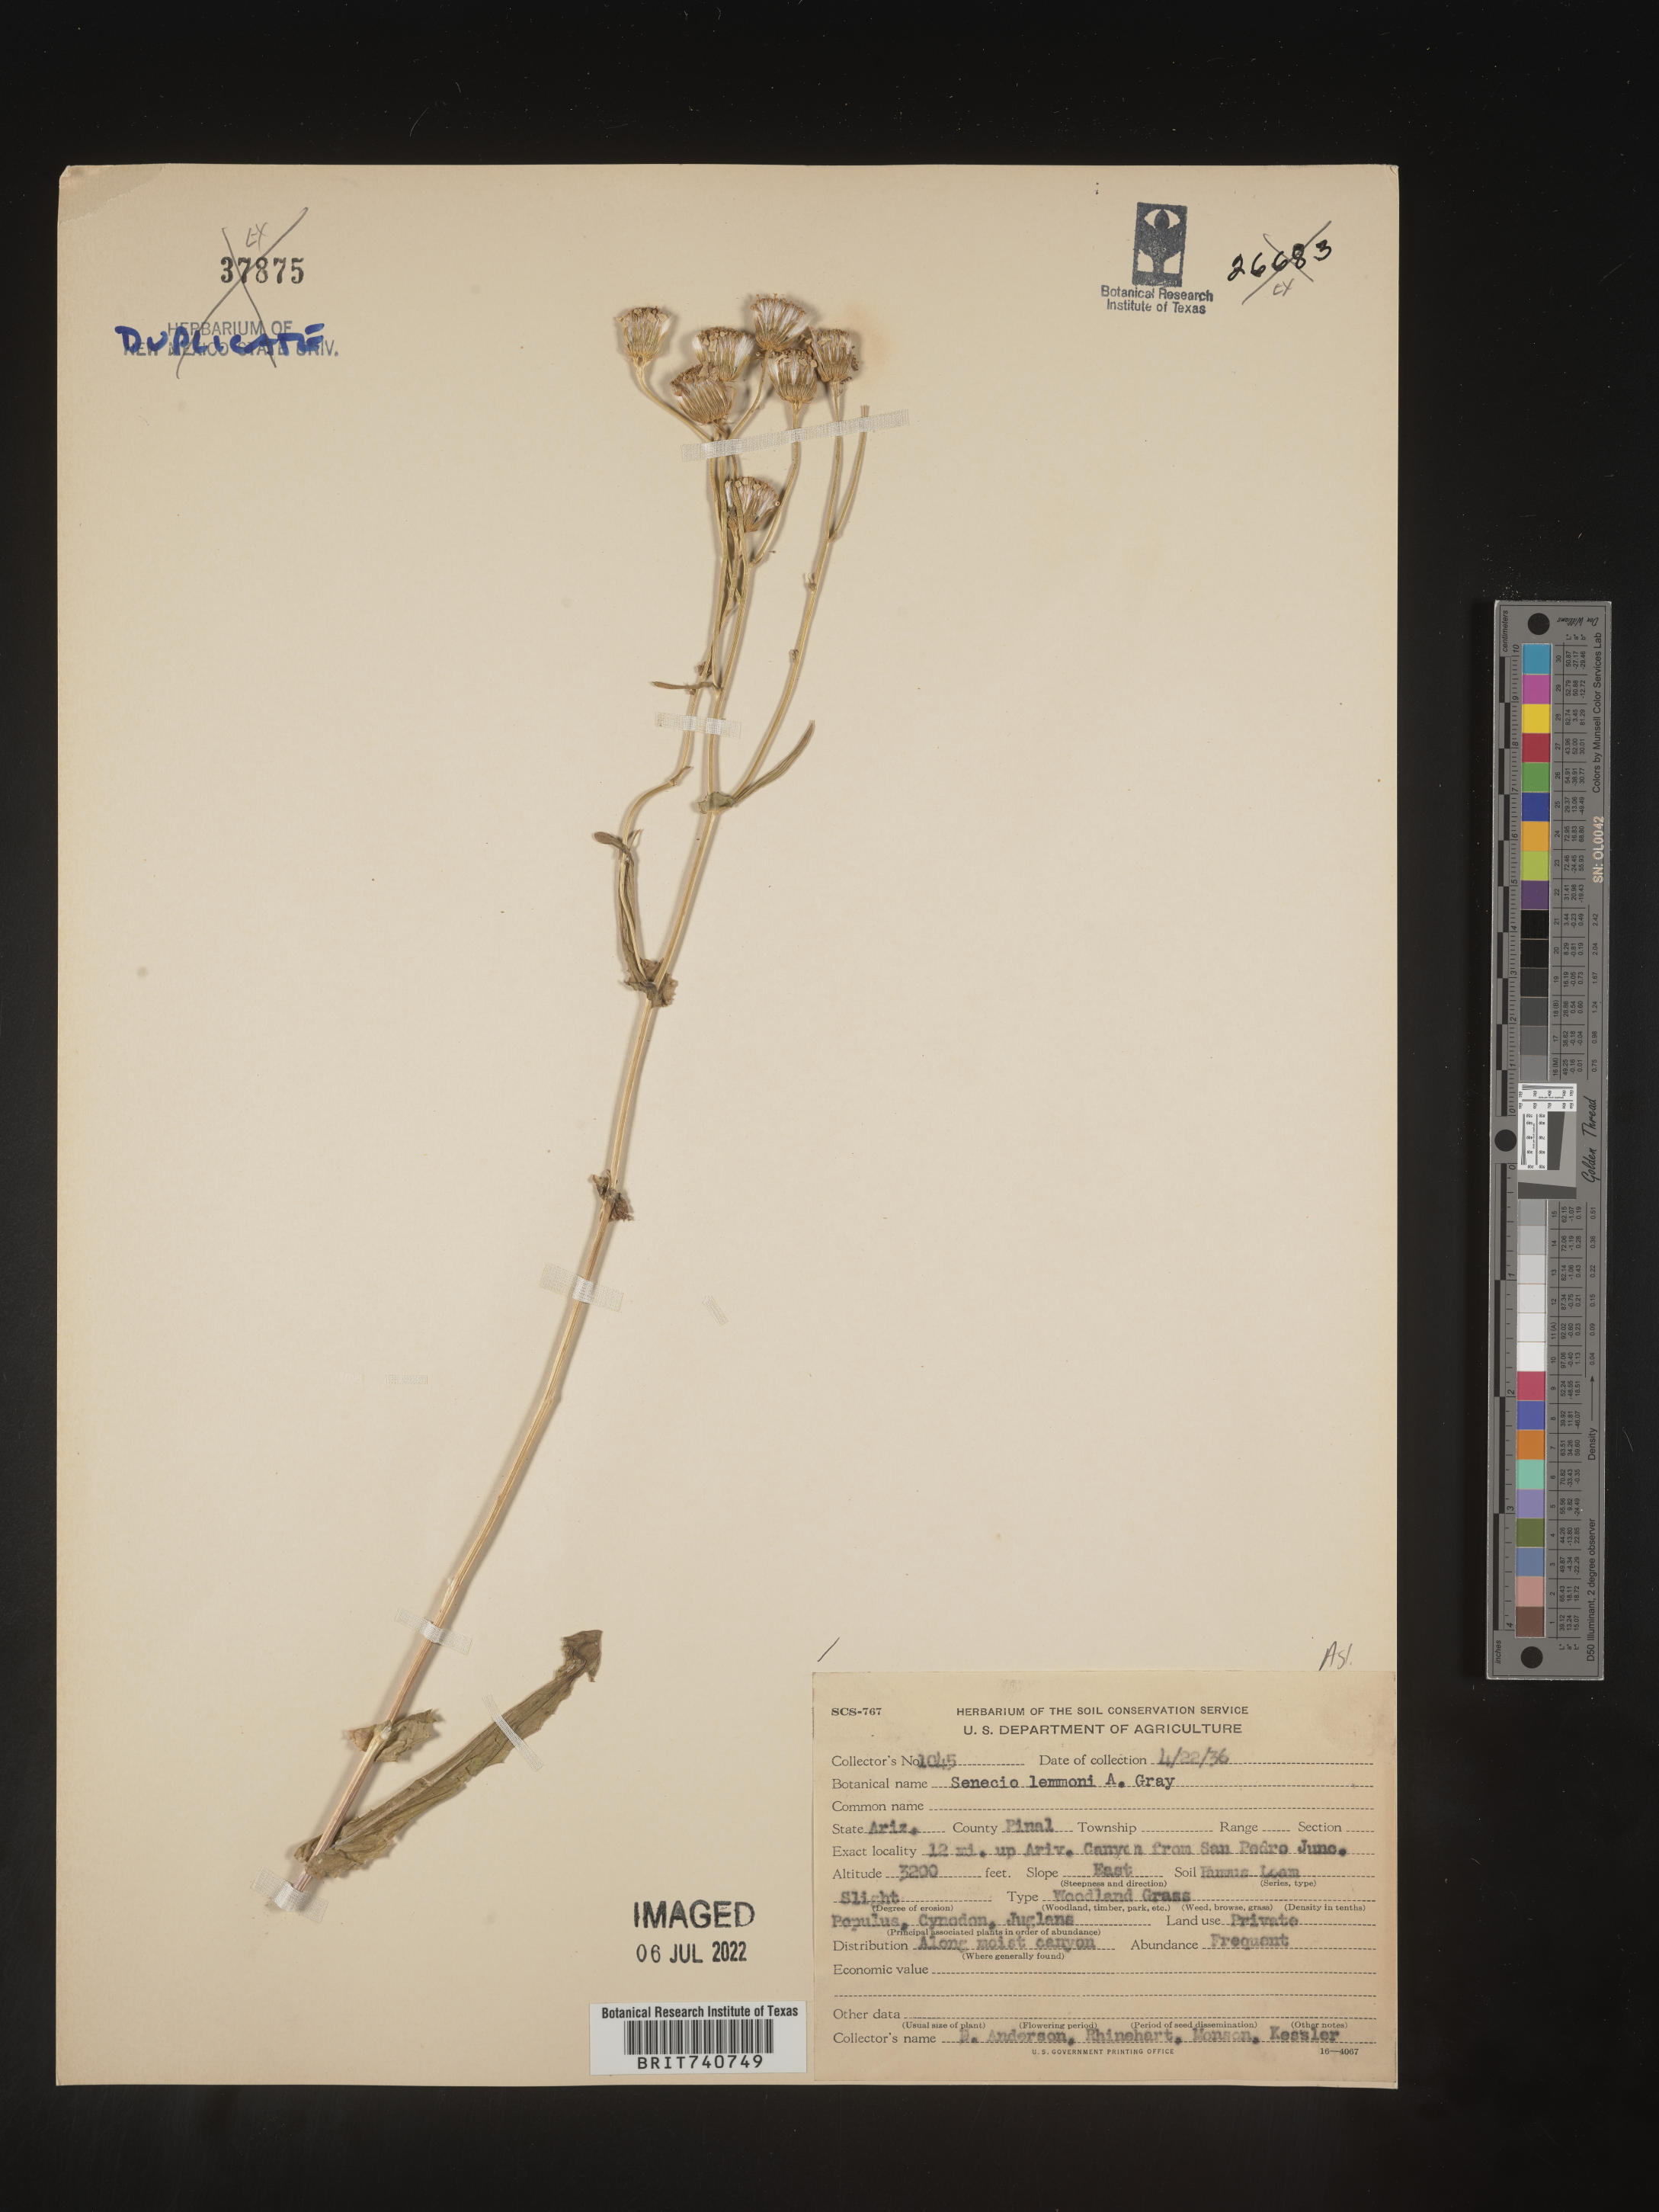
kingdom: Plantae
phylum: Tracheophyta
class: Magnoliopsida
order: Asterales
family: Asteraceae
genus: Senecio
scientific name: Senecio lemmonii
